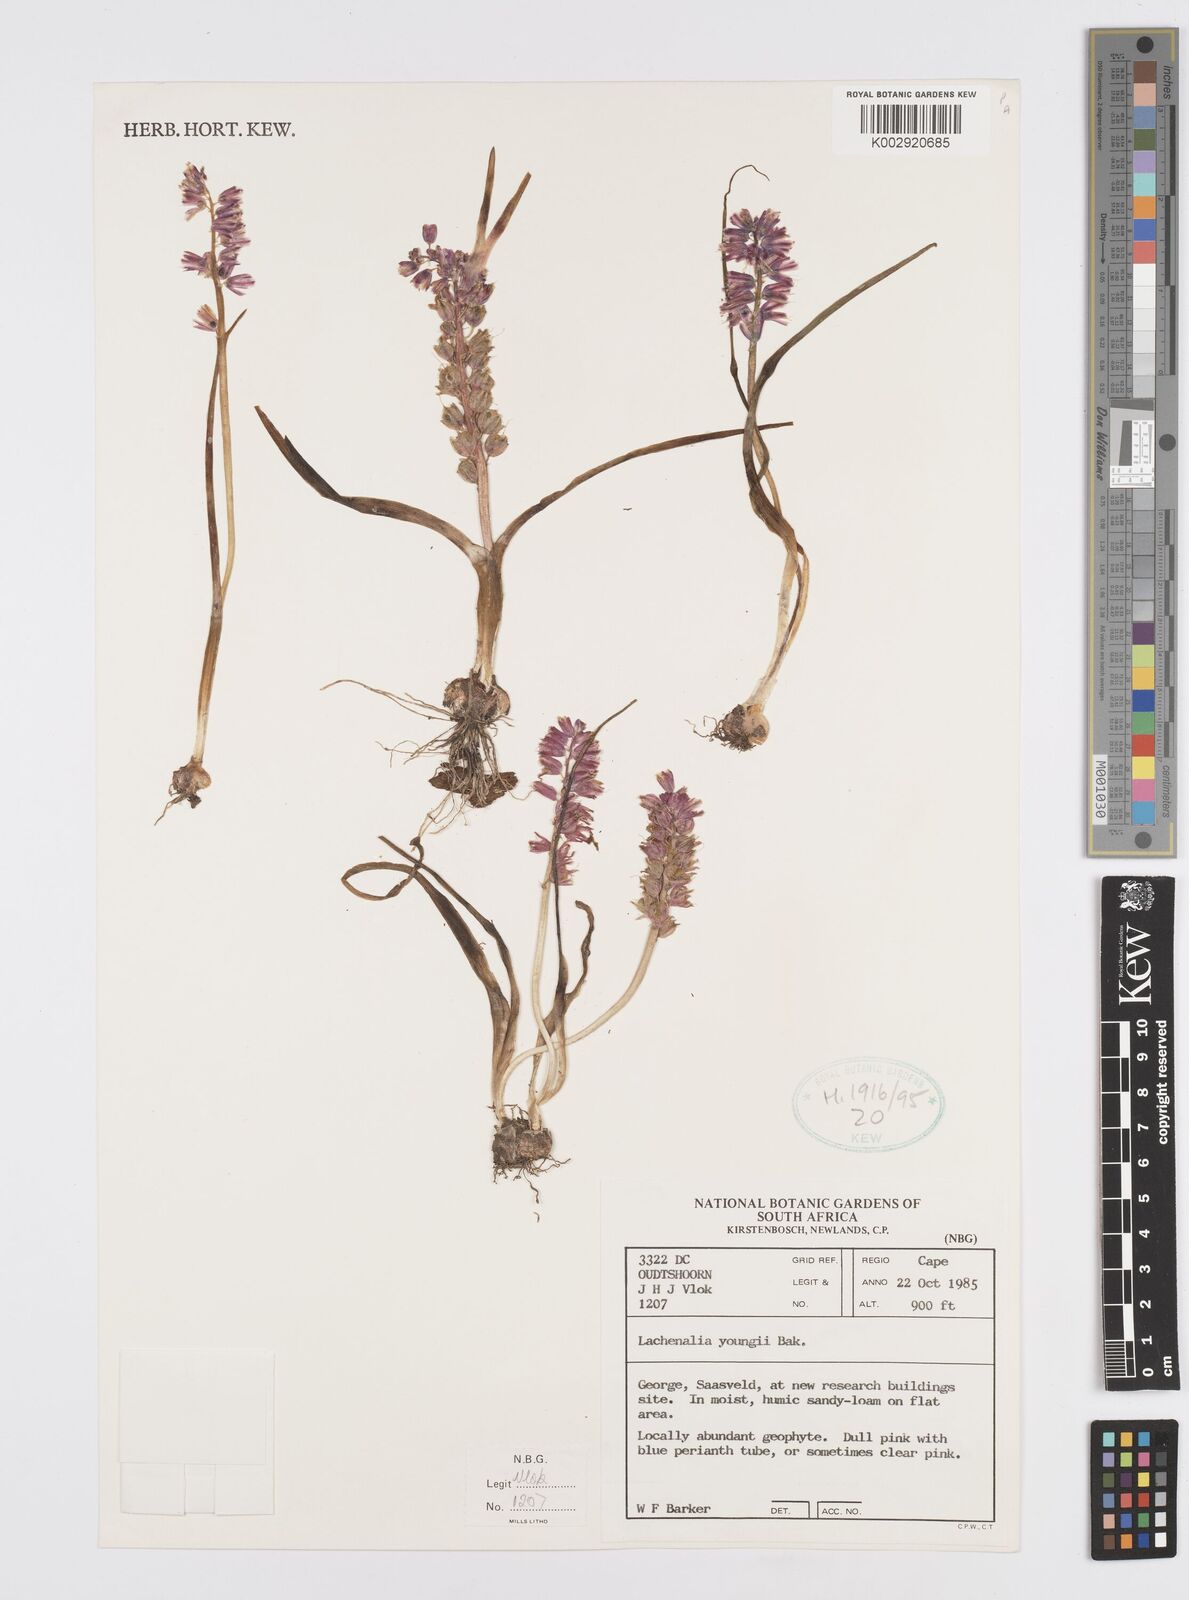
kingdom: Plantae
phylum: Tracheophyta
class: Liliopsida
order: Asparagales
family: Asparagaceae
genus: Lachenalia
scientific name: Lachenalia youngii
